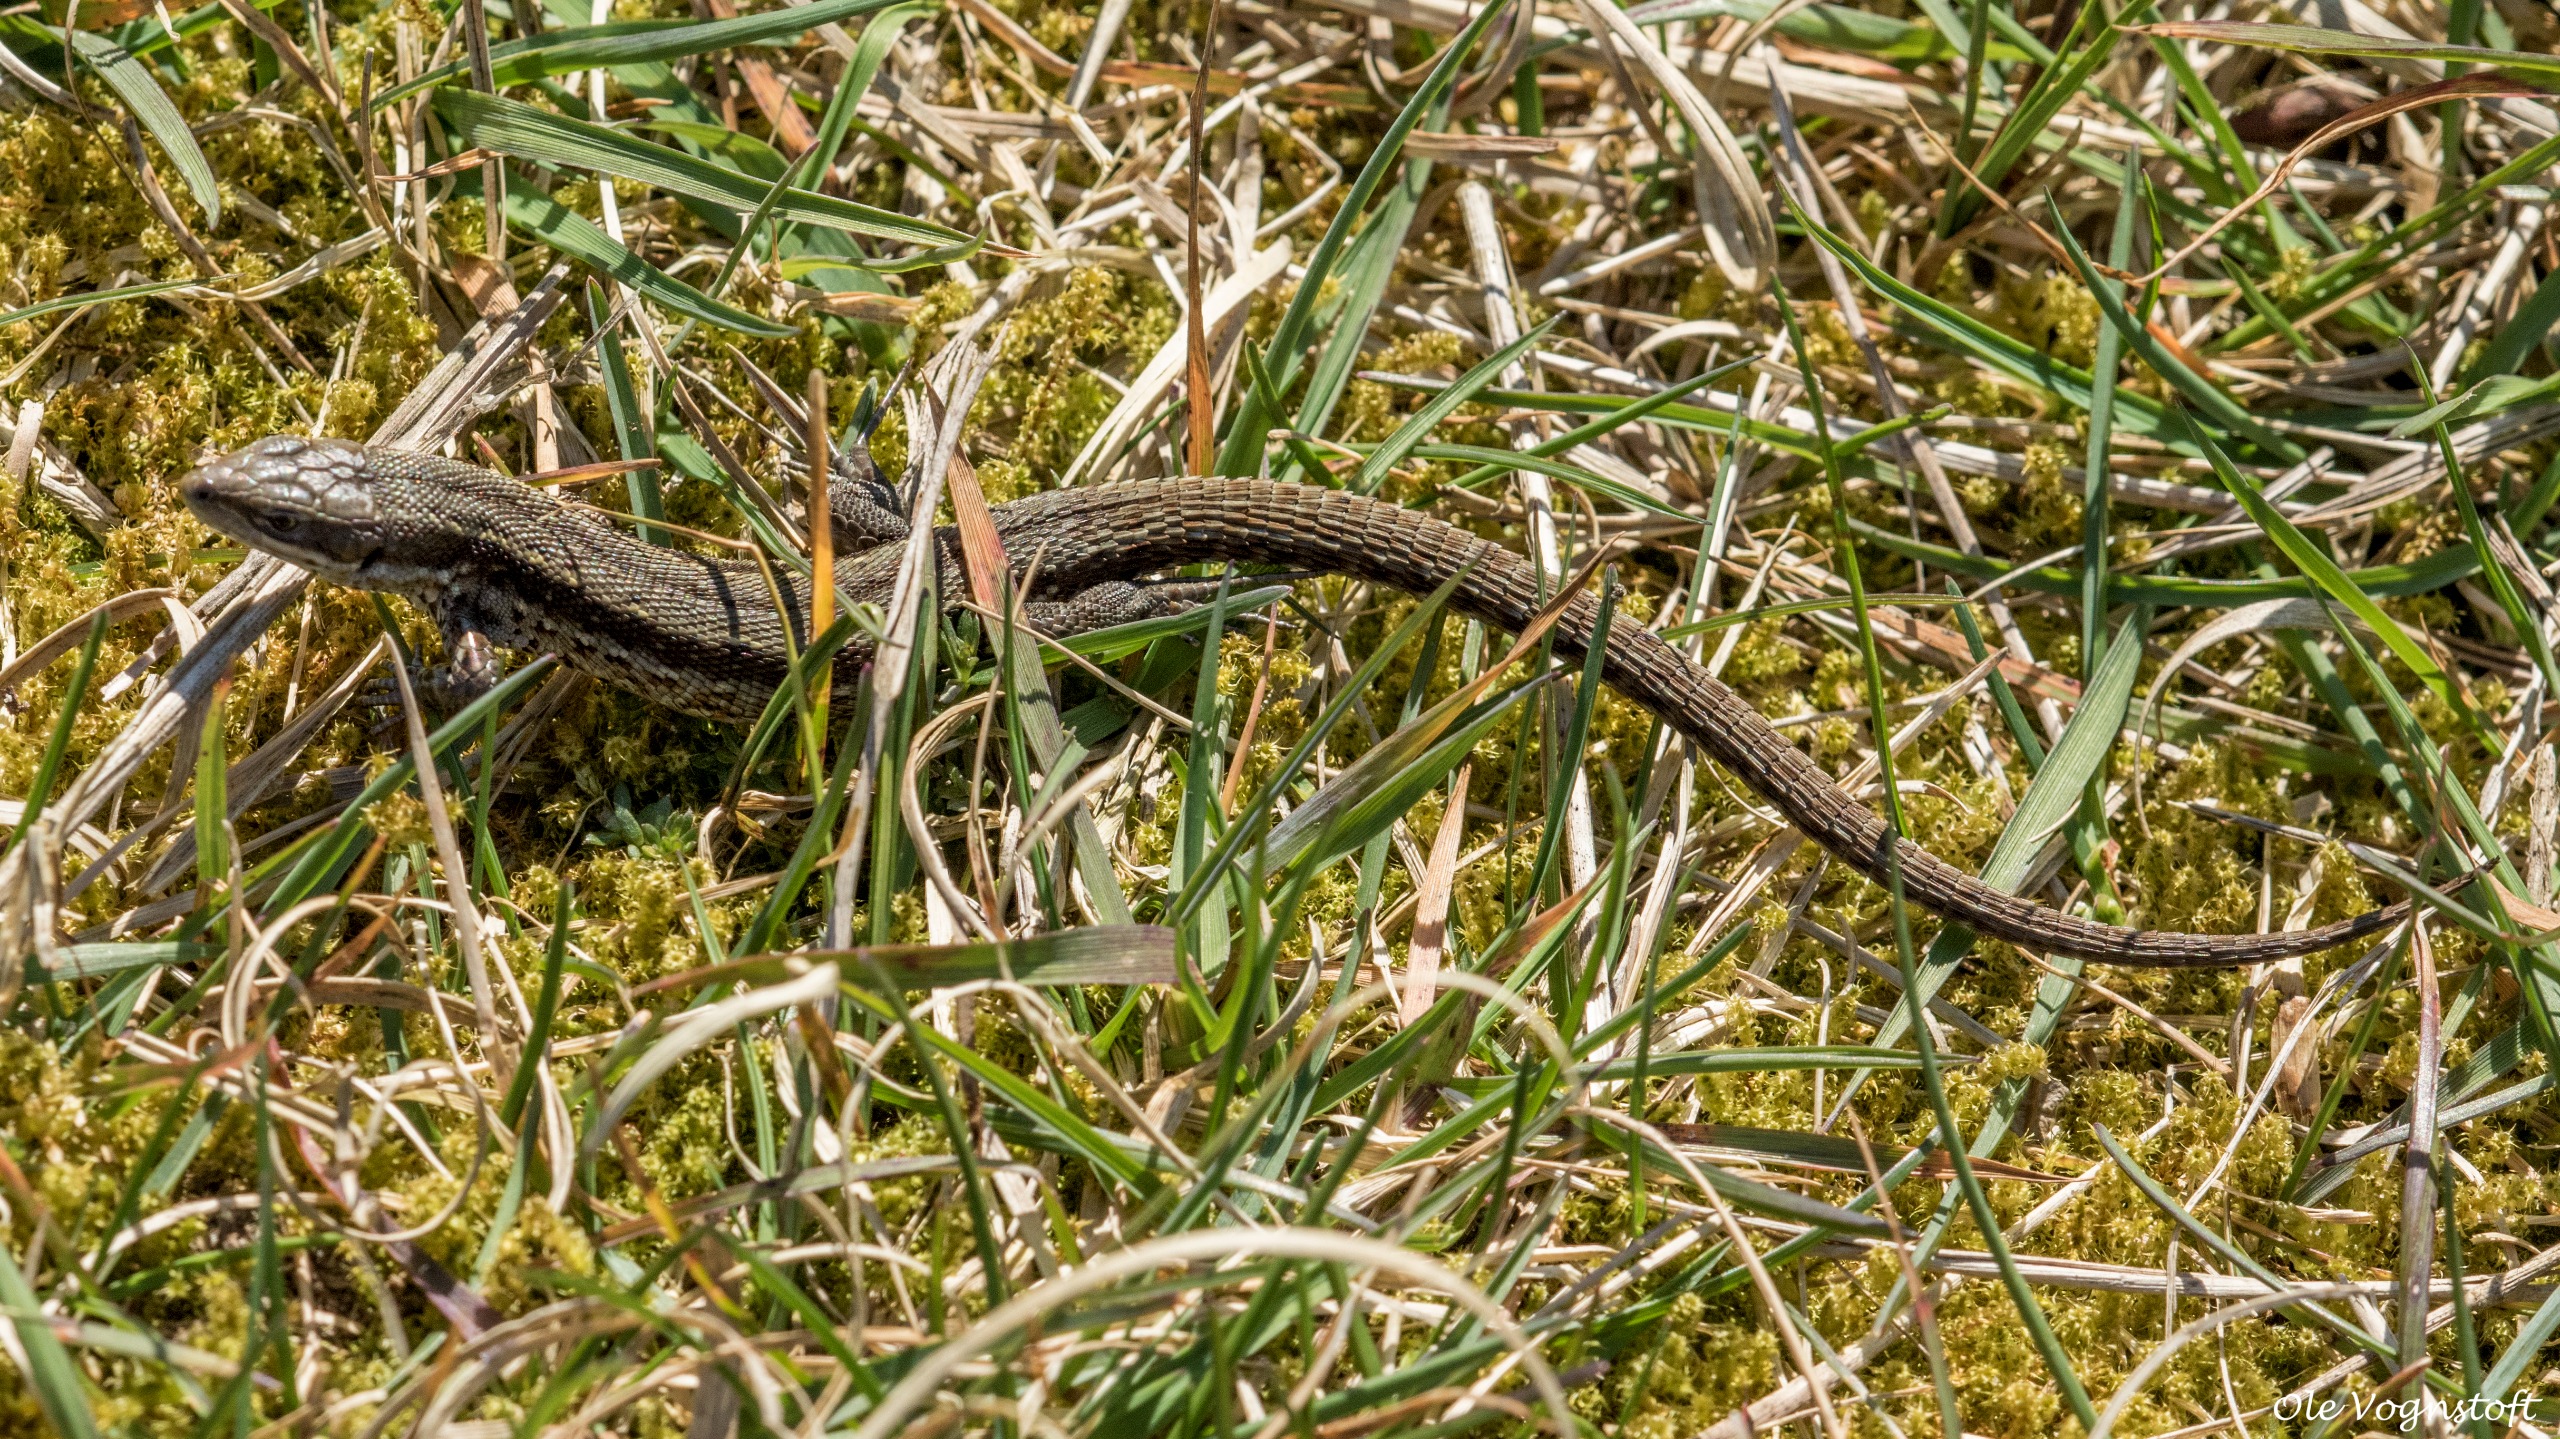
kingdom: Animalia
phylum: Chordata
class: Squamata
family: Lacertidae
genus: Zootoca
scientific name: Zootoca vivipara
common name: Skovfirben
